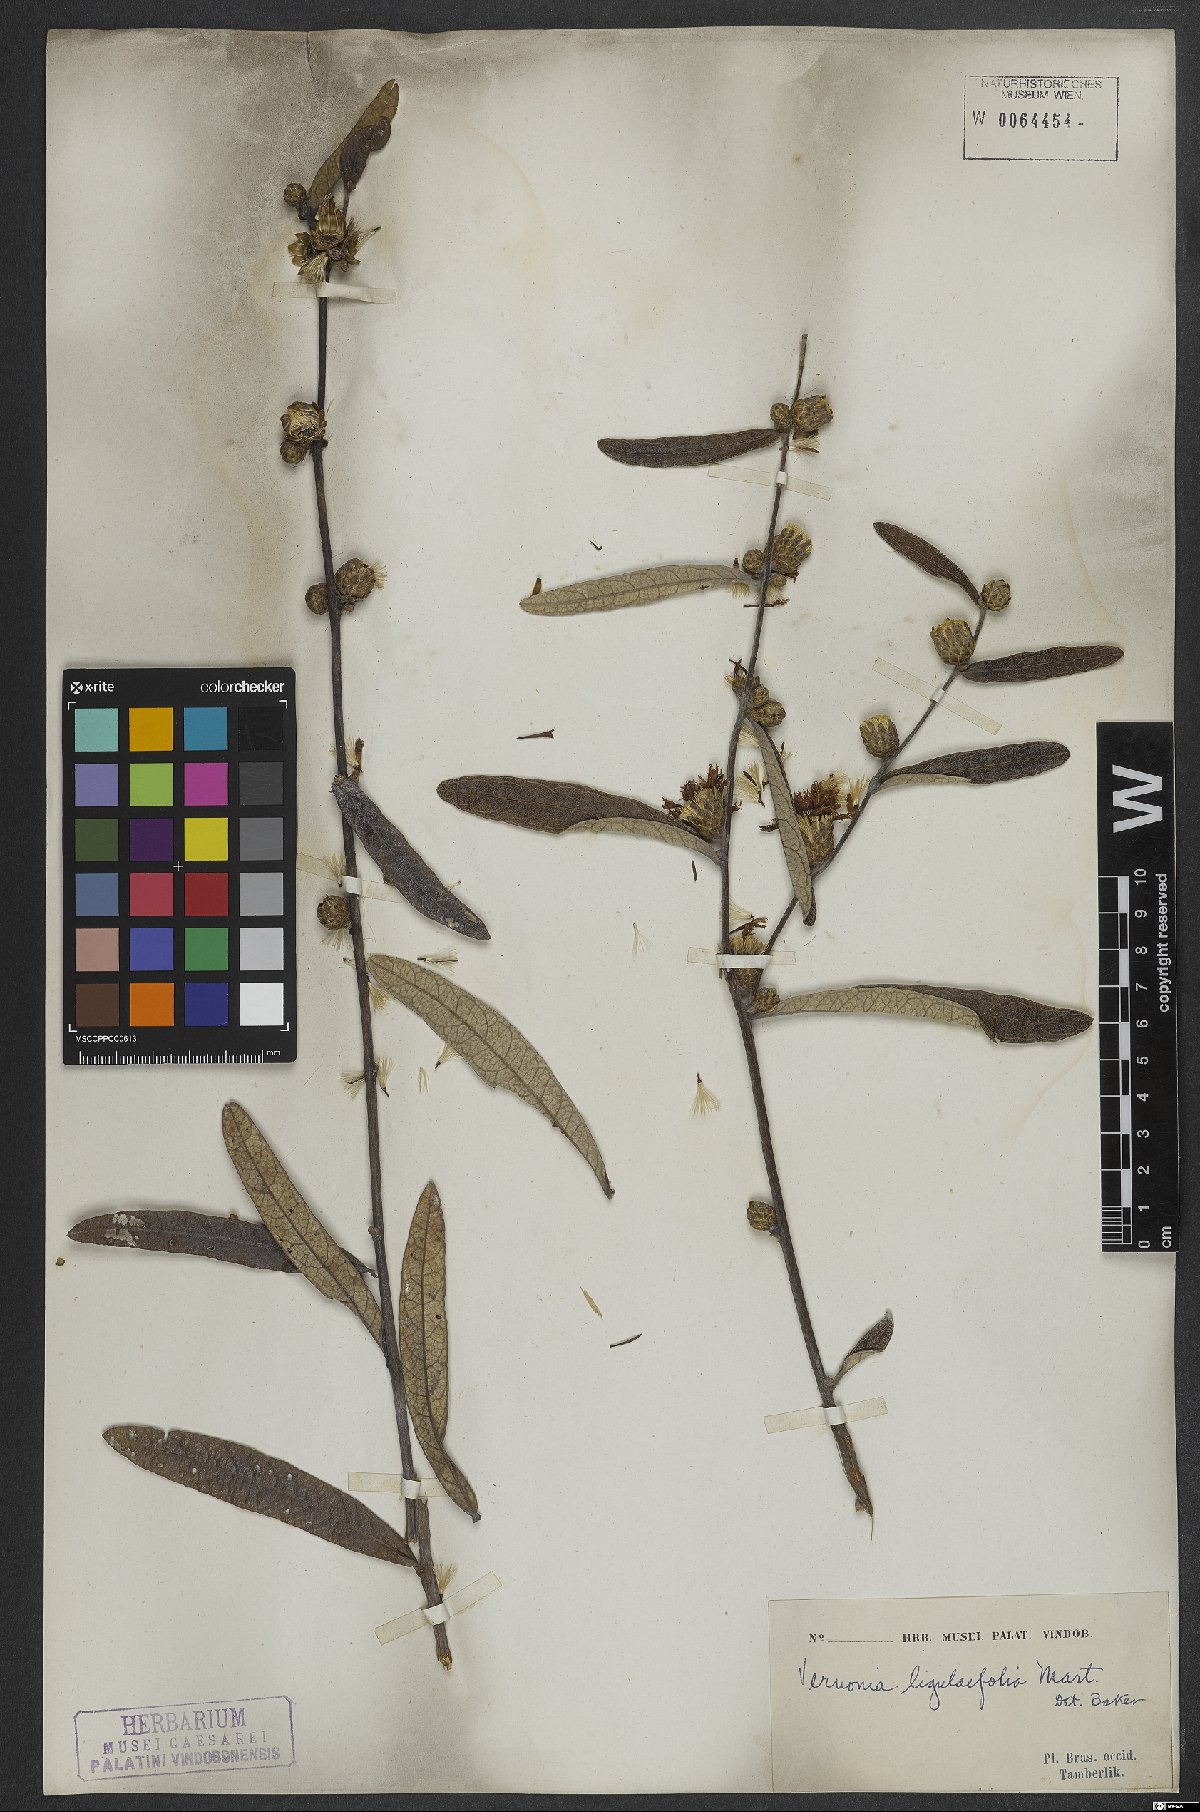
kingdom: Plantae
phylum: Tracheophyta
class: Magnoliopsida
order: Asterales
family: Asteraceae
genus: Lessingianthus
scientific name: Lessingianthus ligulifolius
